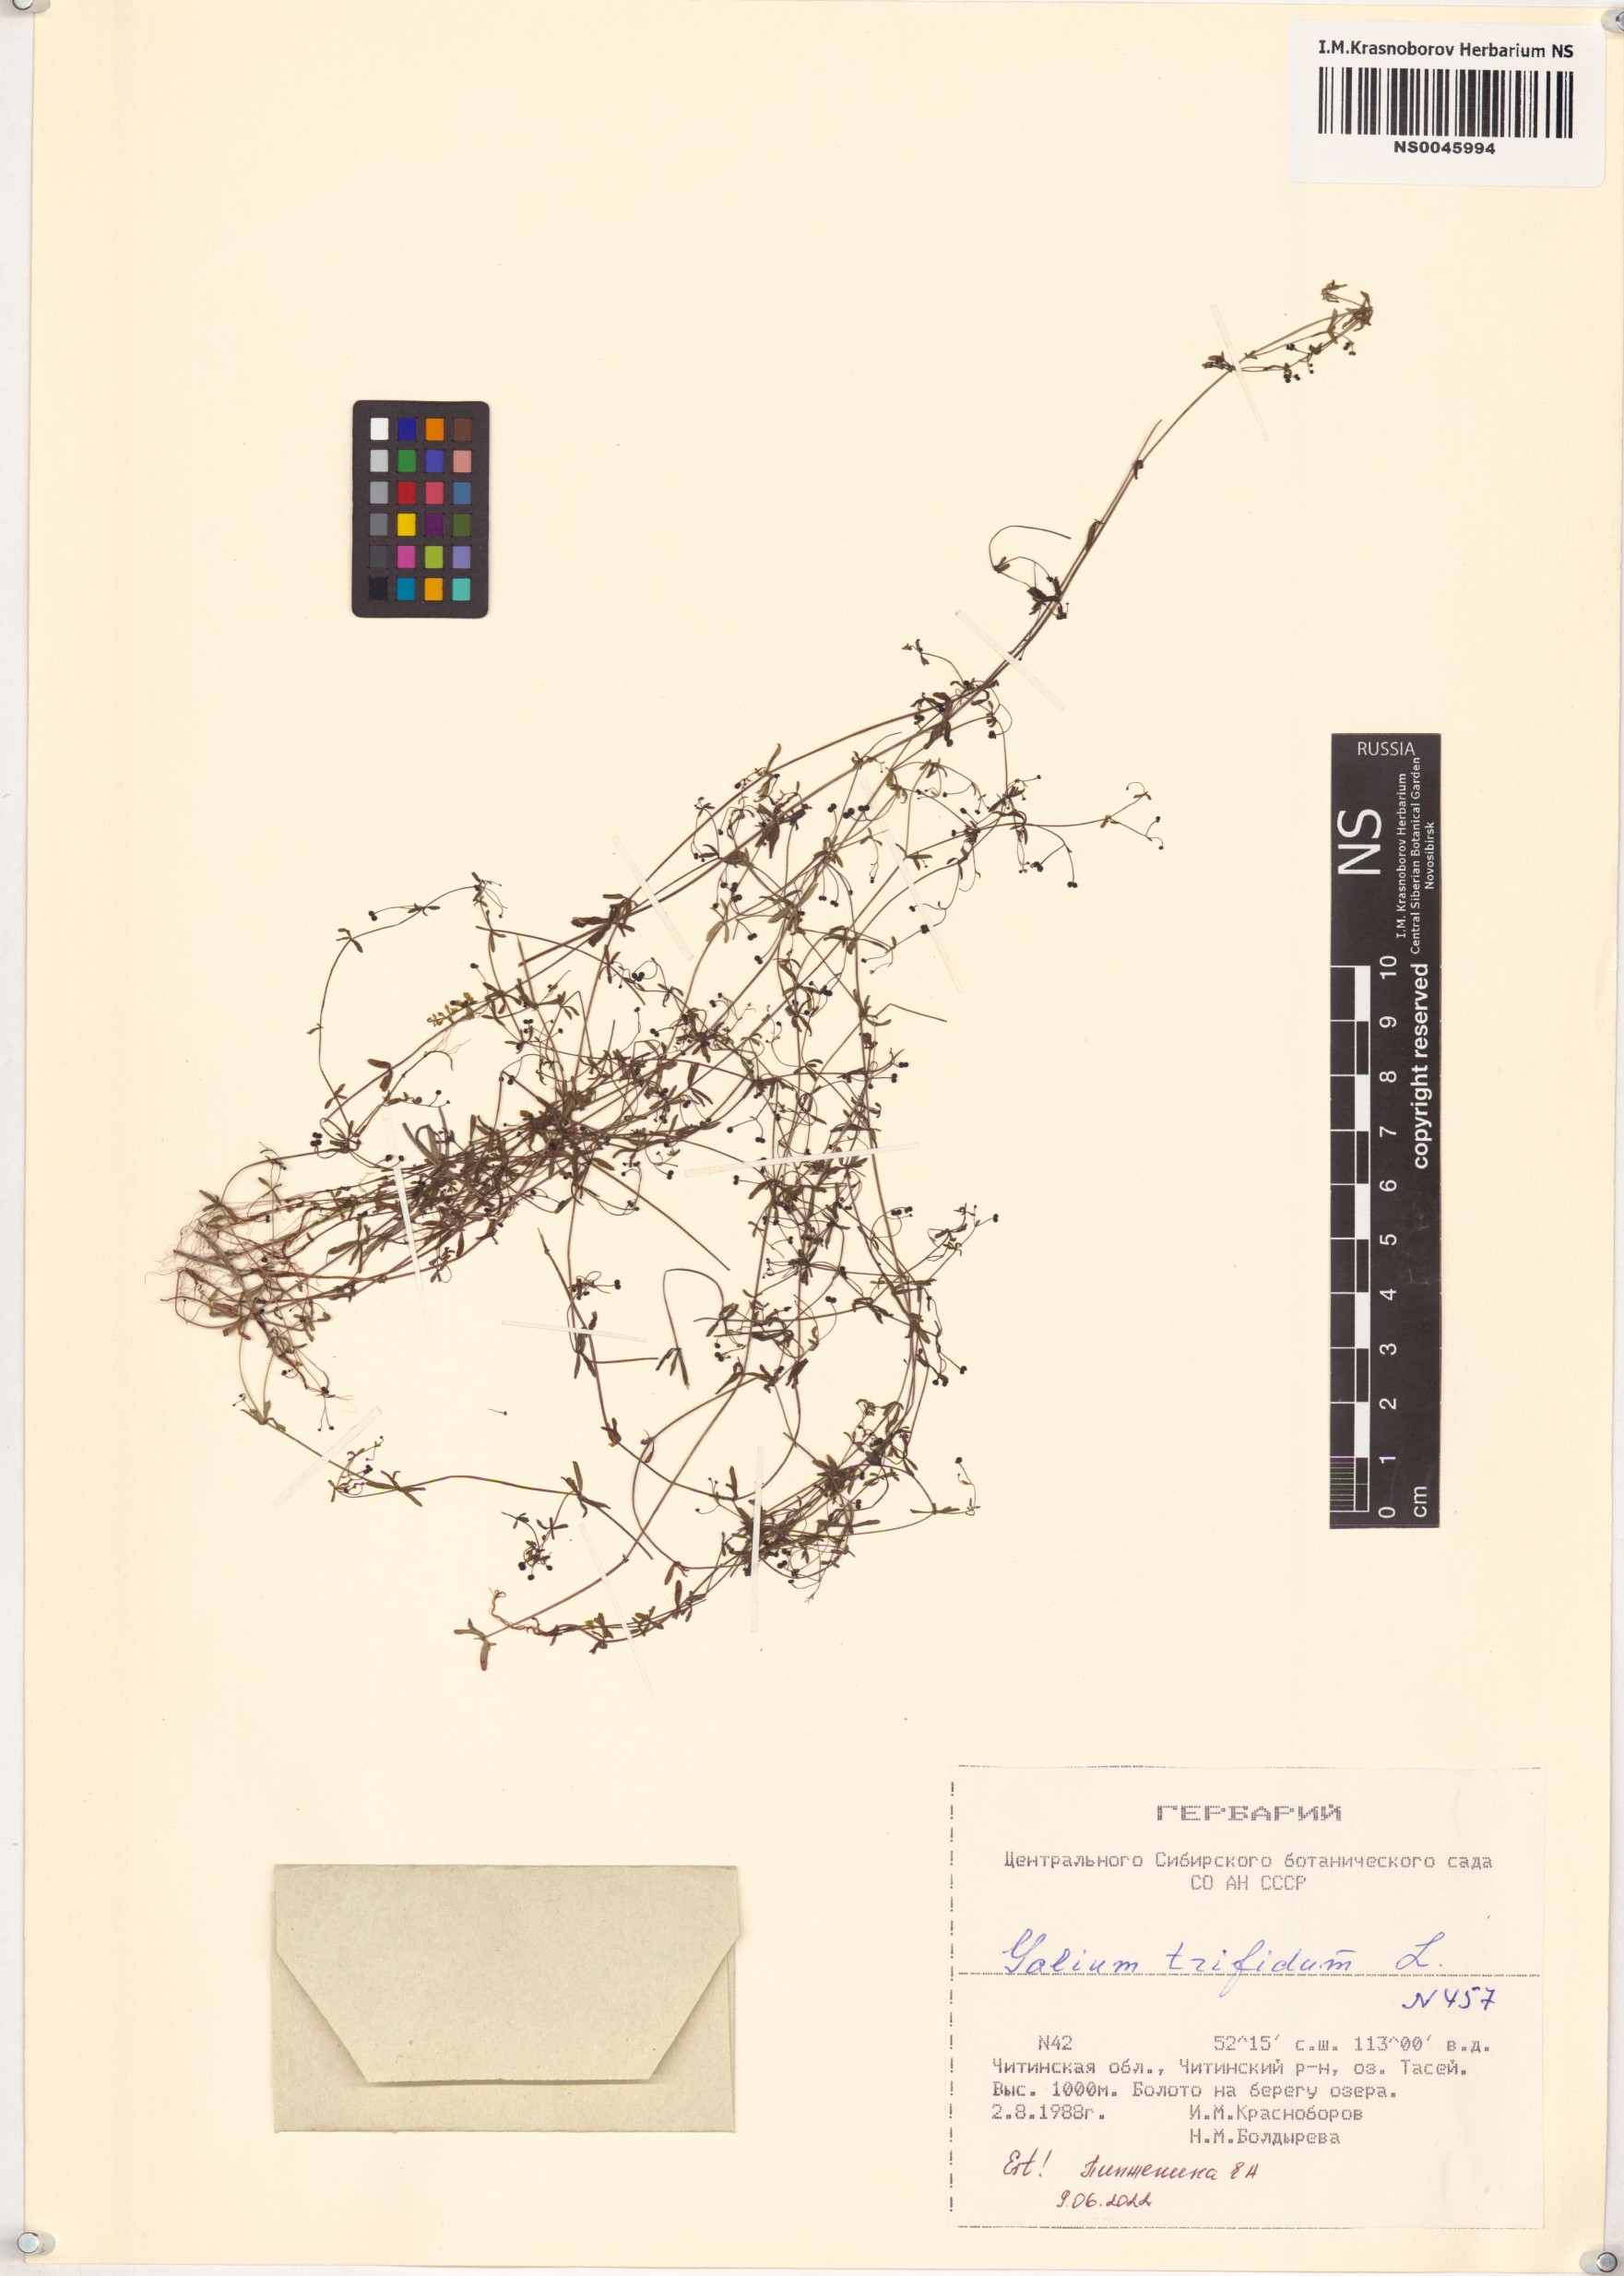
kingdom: Plantae
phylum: Tracheophyta
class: Magnoliopsida
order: Gentianales
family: Rubiaceae
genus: Galium
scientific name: Galium trifidum
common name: Small bedstraw
